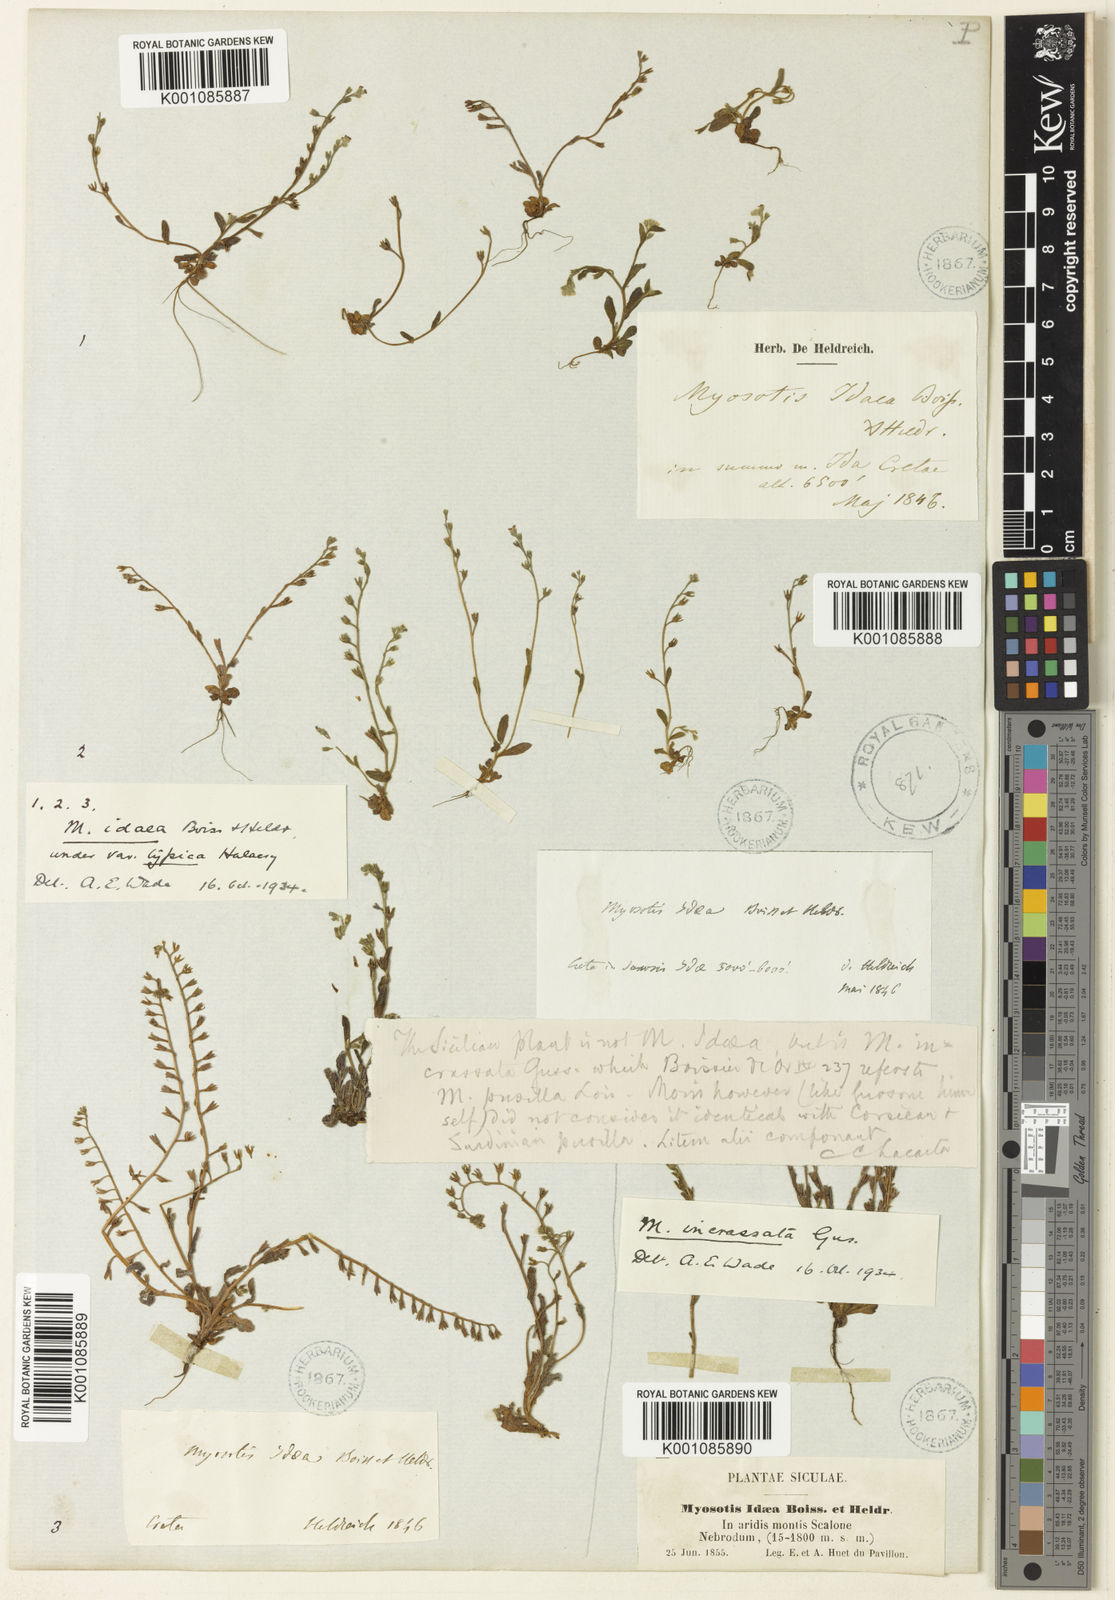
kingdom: Plantae
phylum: Tracheophyta
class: Magnoliopsida
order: Boraginales
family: Boraginaceae
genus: Myosotis
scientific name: Myosotis incrassata
